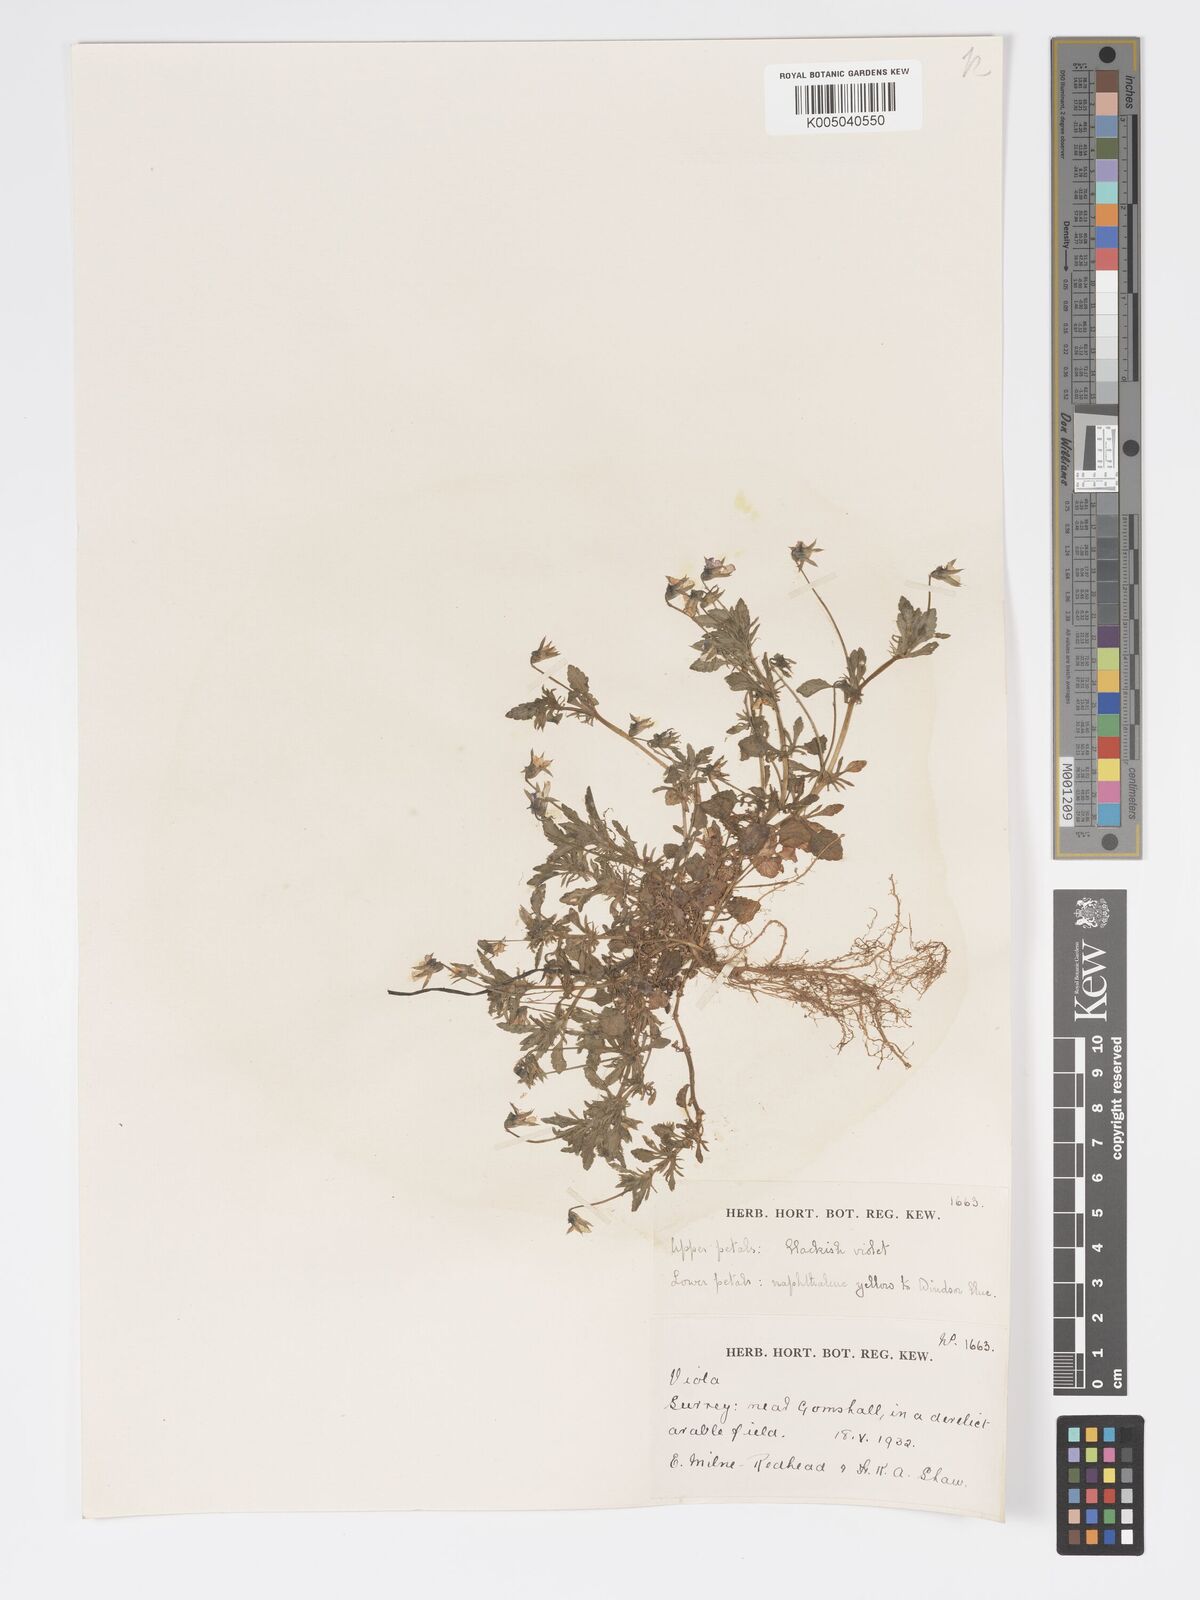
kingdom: Plantae
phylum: Tracheophyta
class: Magnoliopsida
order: Malpighiales
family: Violaceae
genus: Viola
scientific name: Viola
